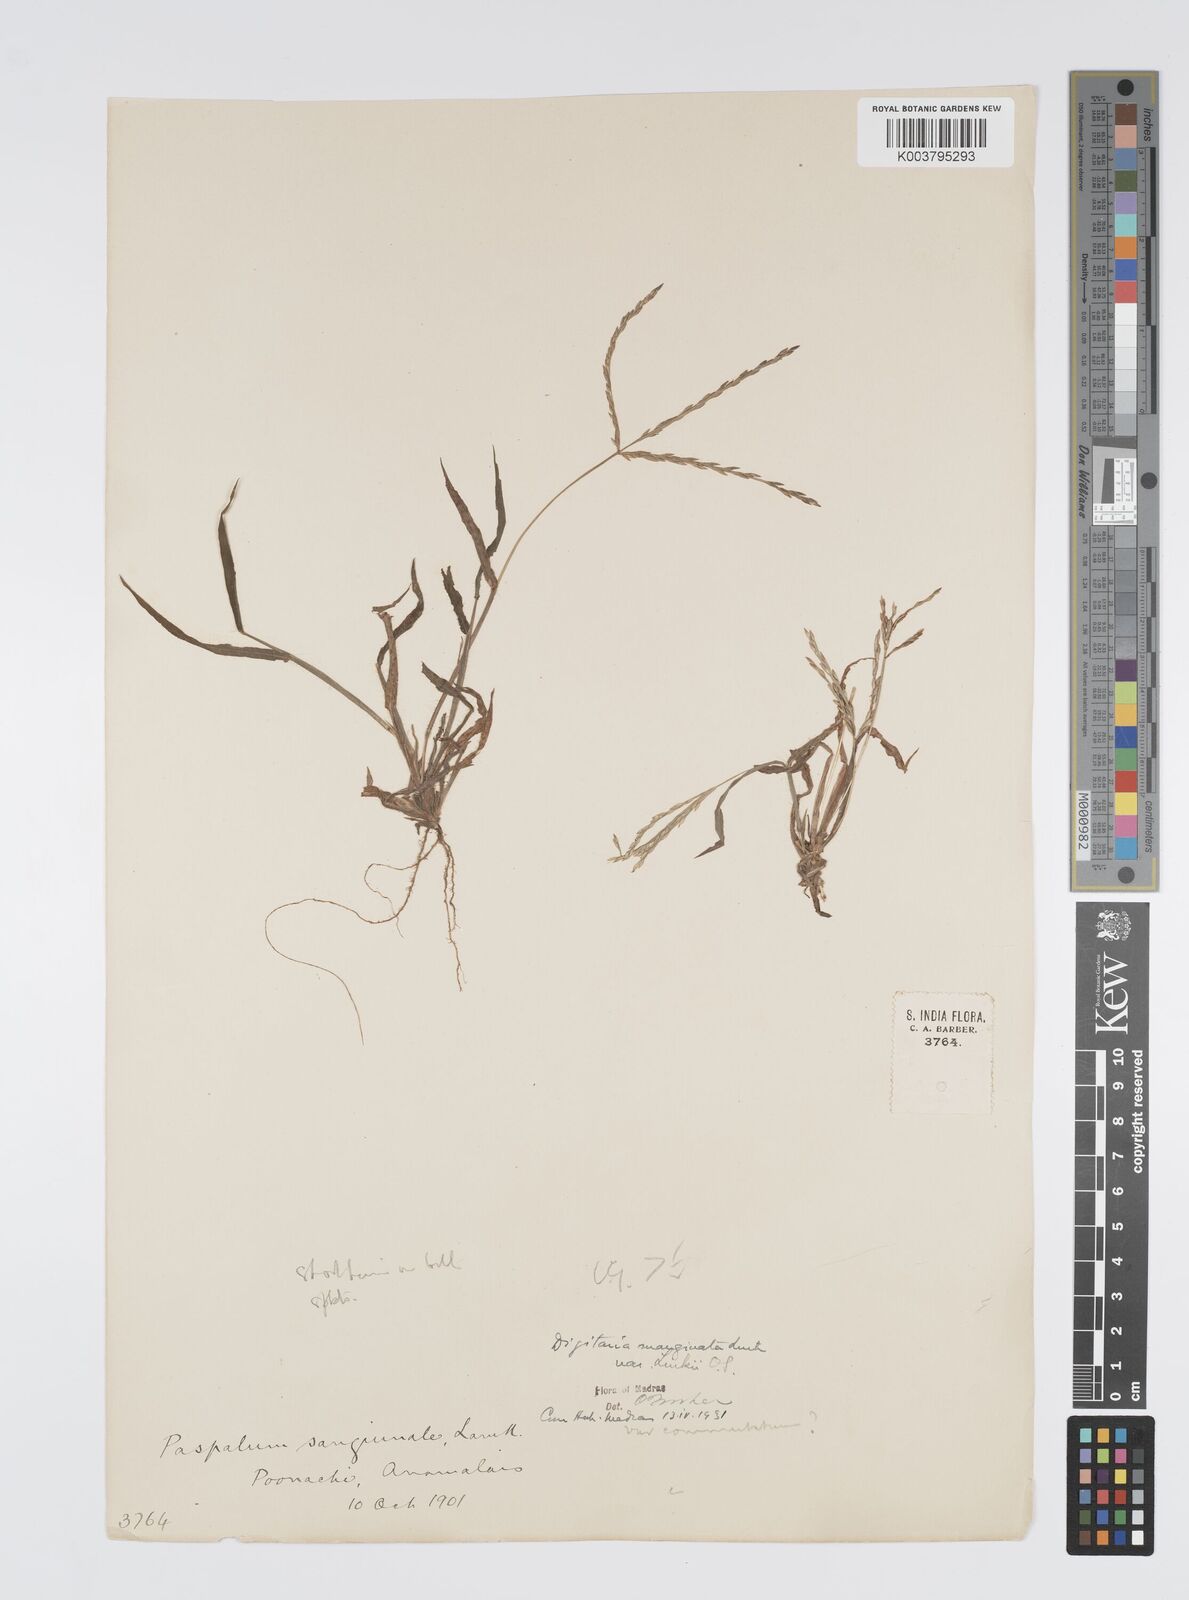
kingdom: Plantae
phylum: Tracheophyta
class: Liliopsida
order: Poales
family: Poaceae
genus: Digitaria
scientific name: Digitaria spec
